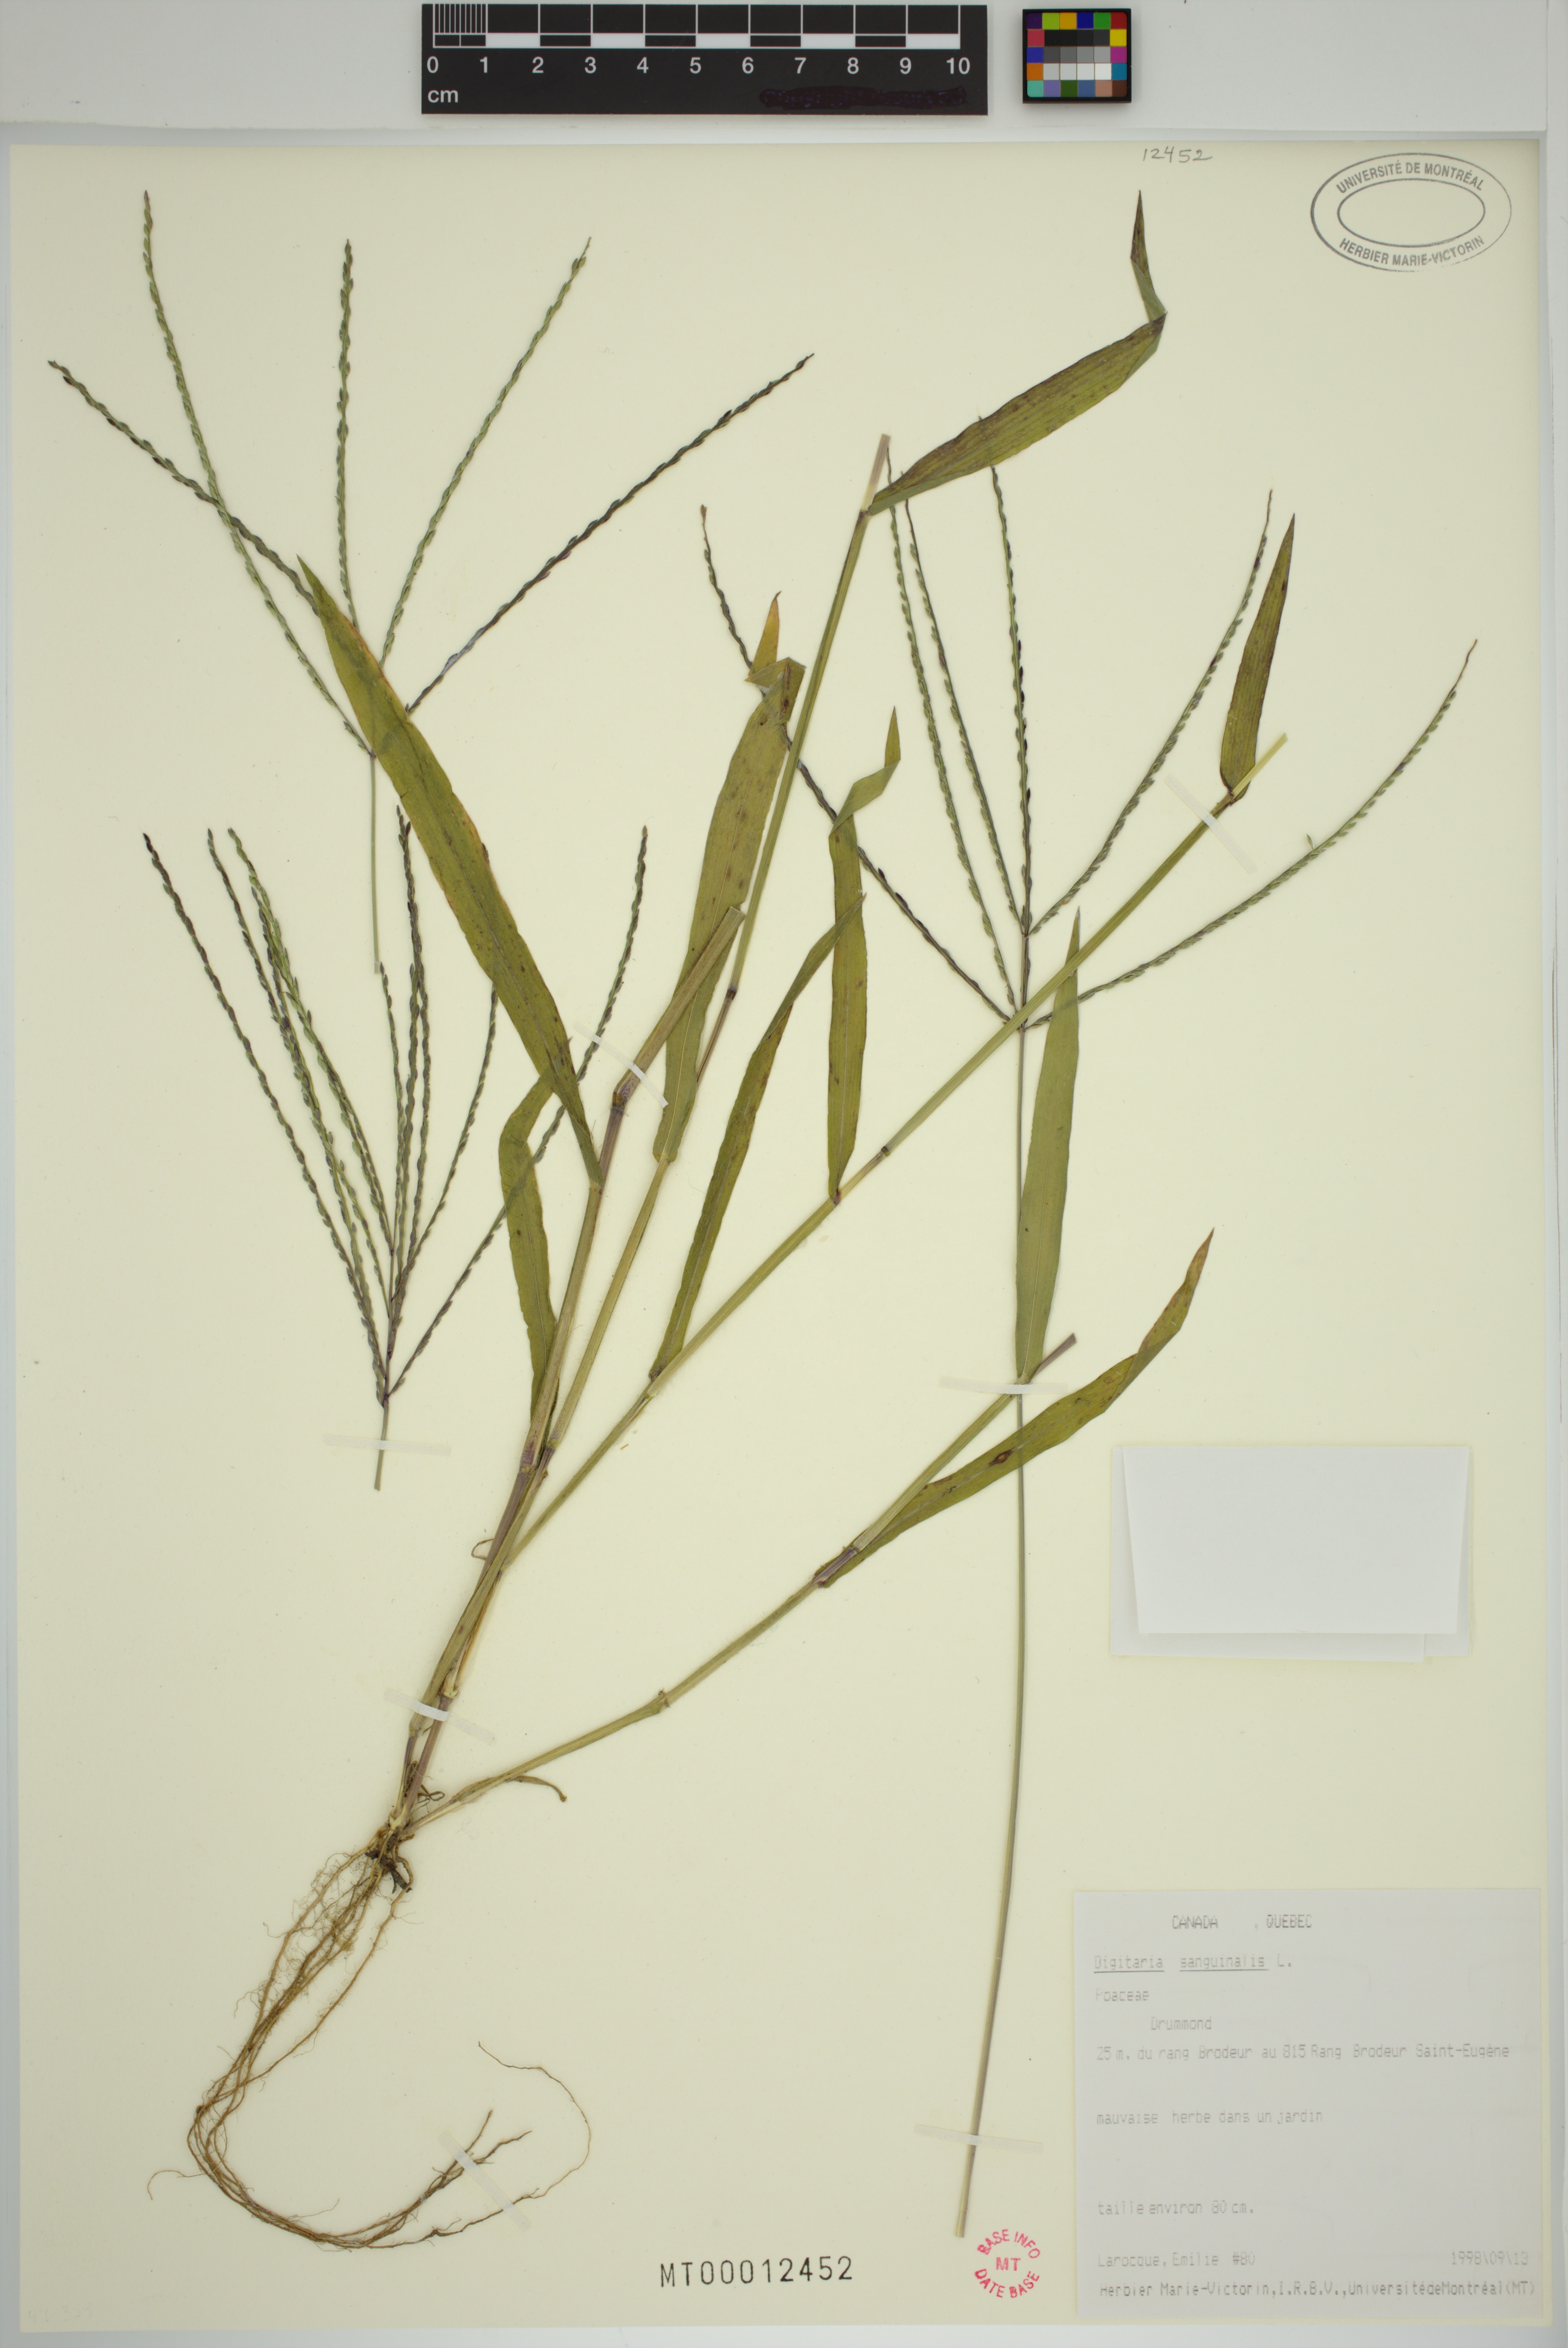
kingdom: Plantae
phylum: Tracheophyta
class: Liliopsida
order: Poales
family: Poaceae
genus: Digitaria
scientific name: Digitaria sanguinalis
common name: Hairy crabgrass
